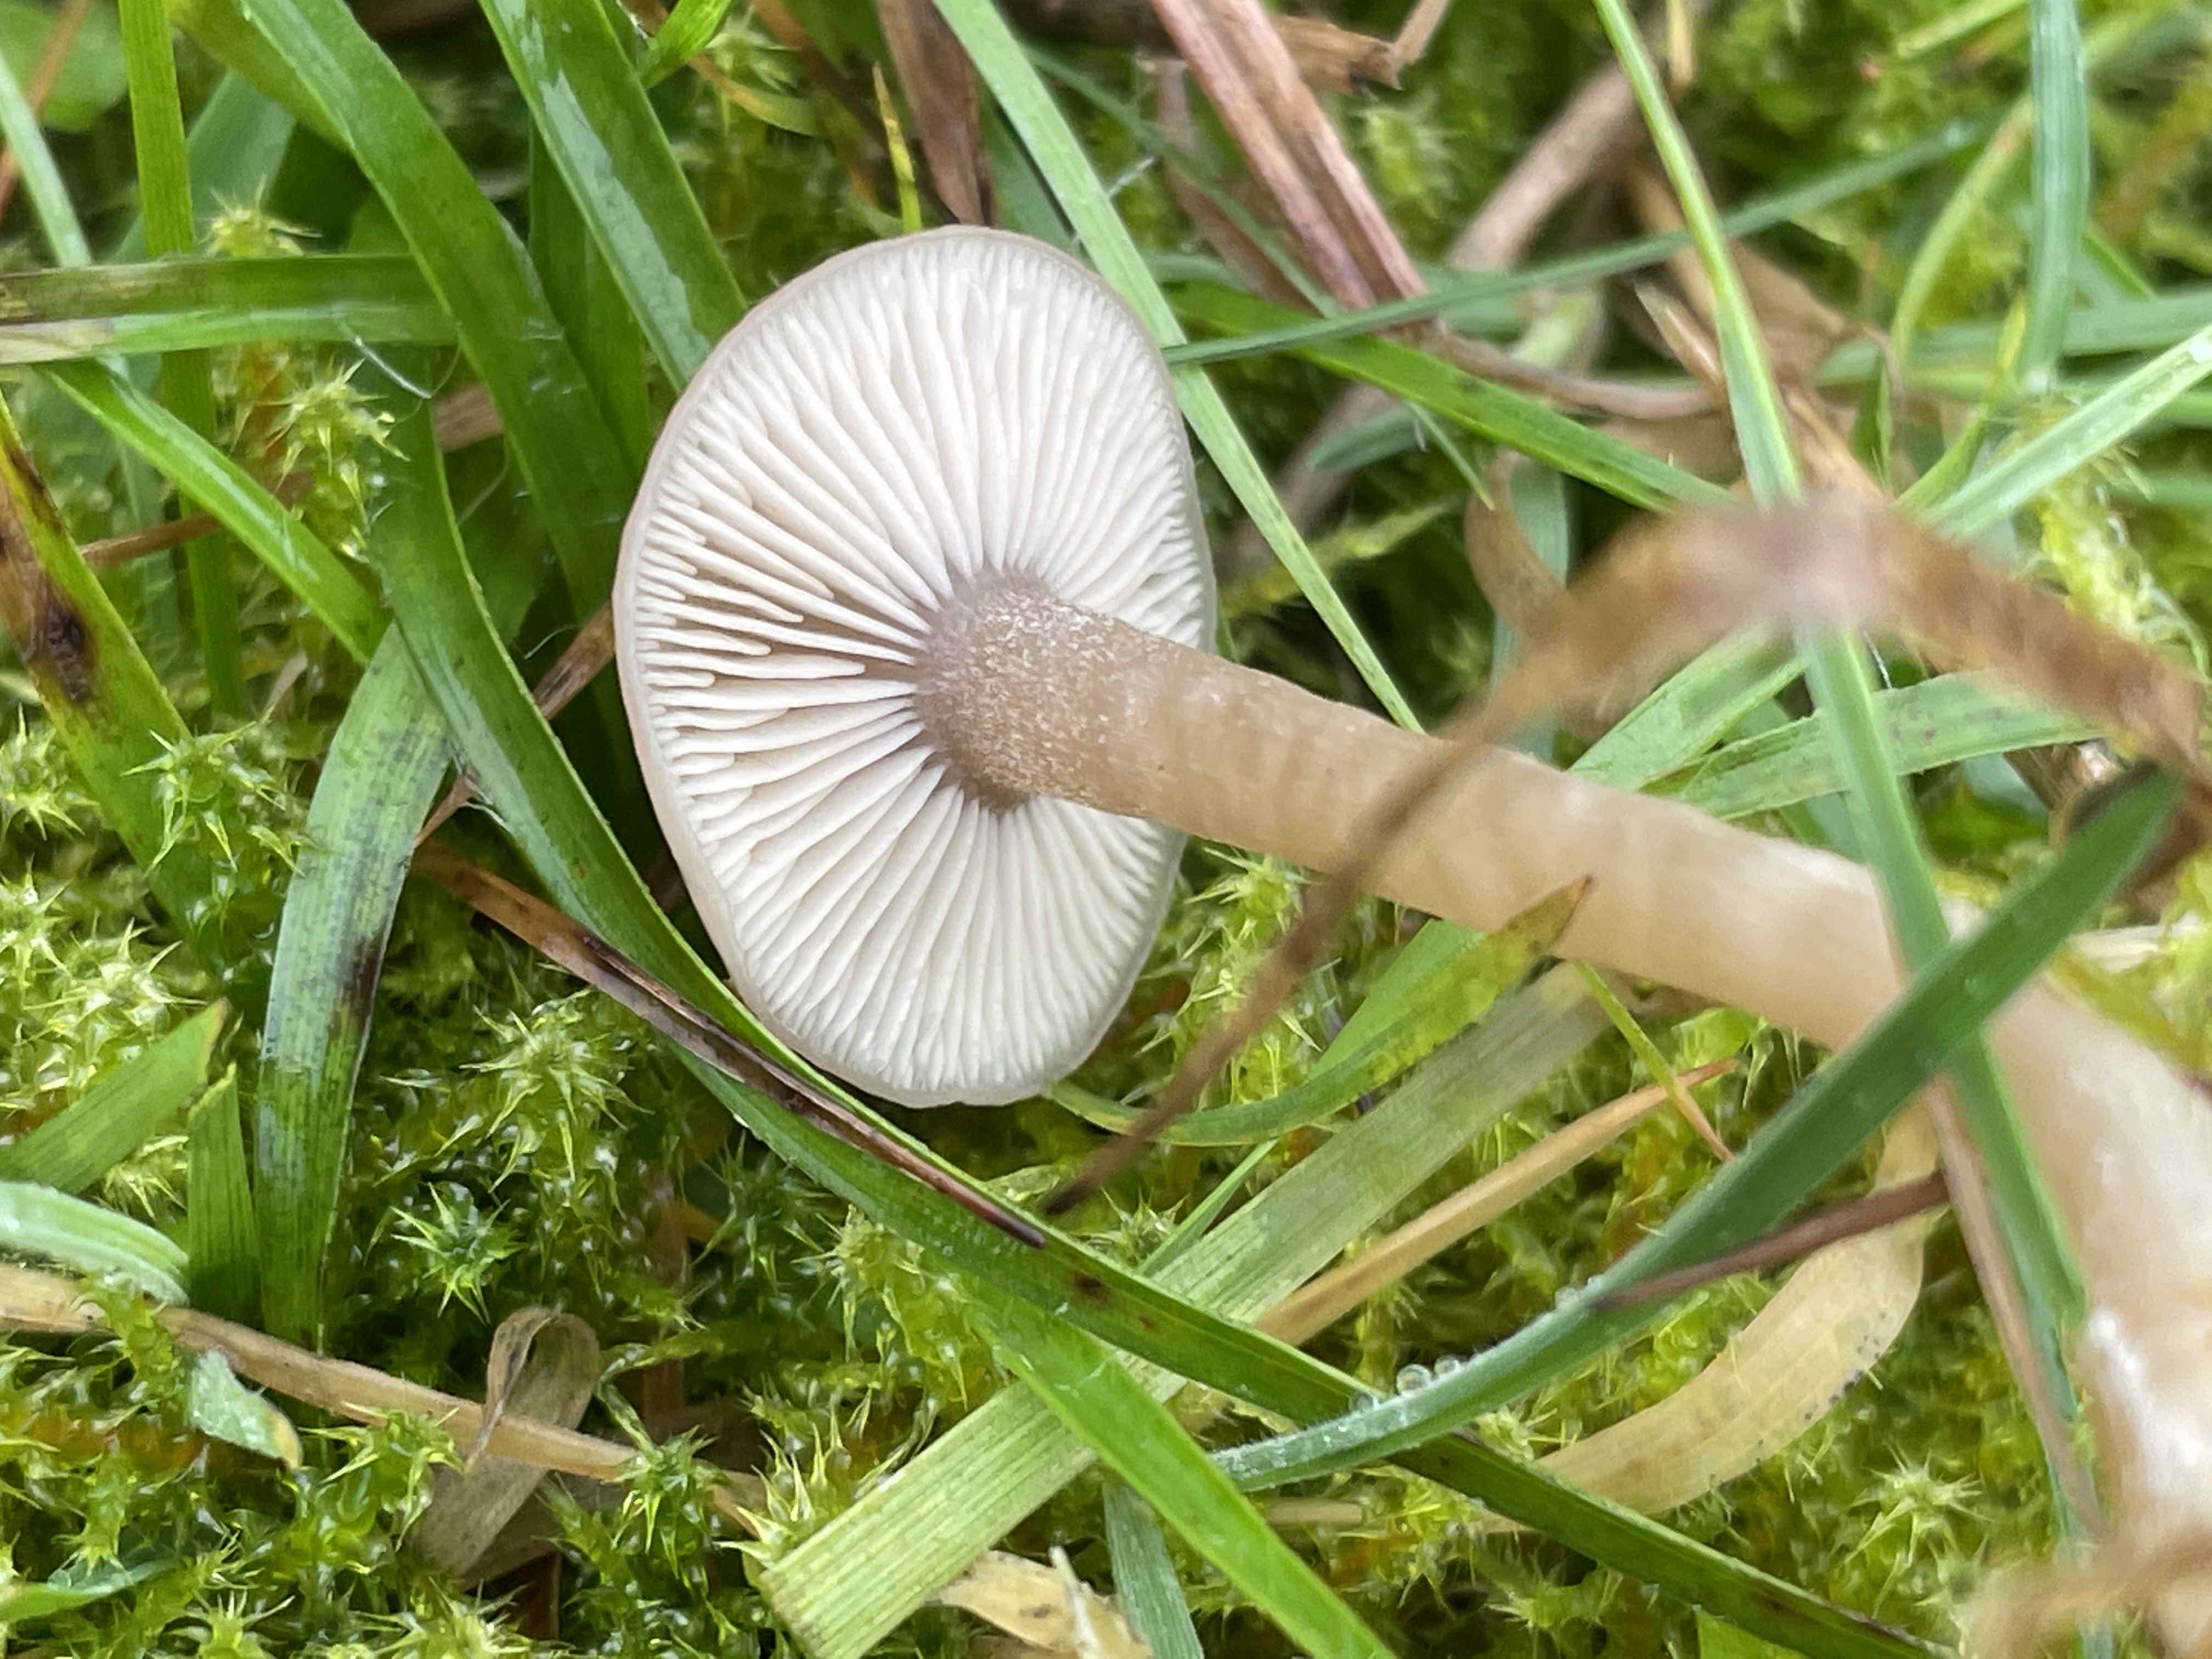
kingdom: Fungi
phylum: Basidiomycota
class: Agaricomycetes
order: Agaricales
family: Tricholomataceae
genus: Clitocybe
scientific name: Clitocybe fragrans
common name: vellugtende tragthat
